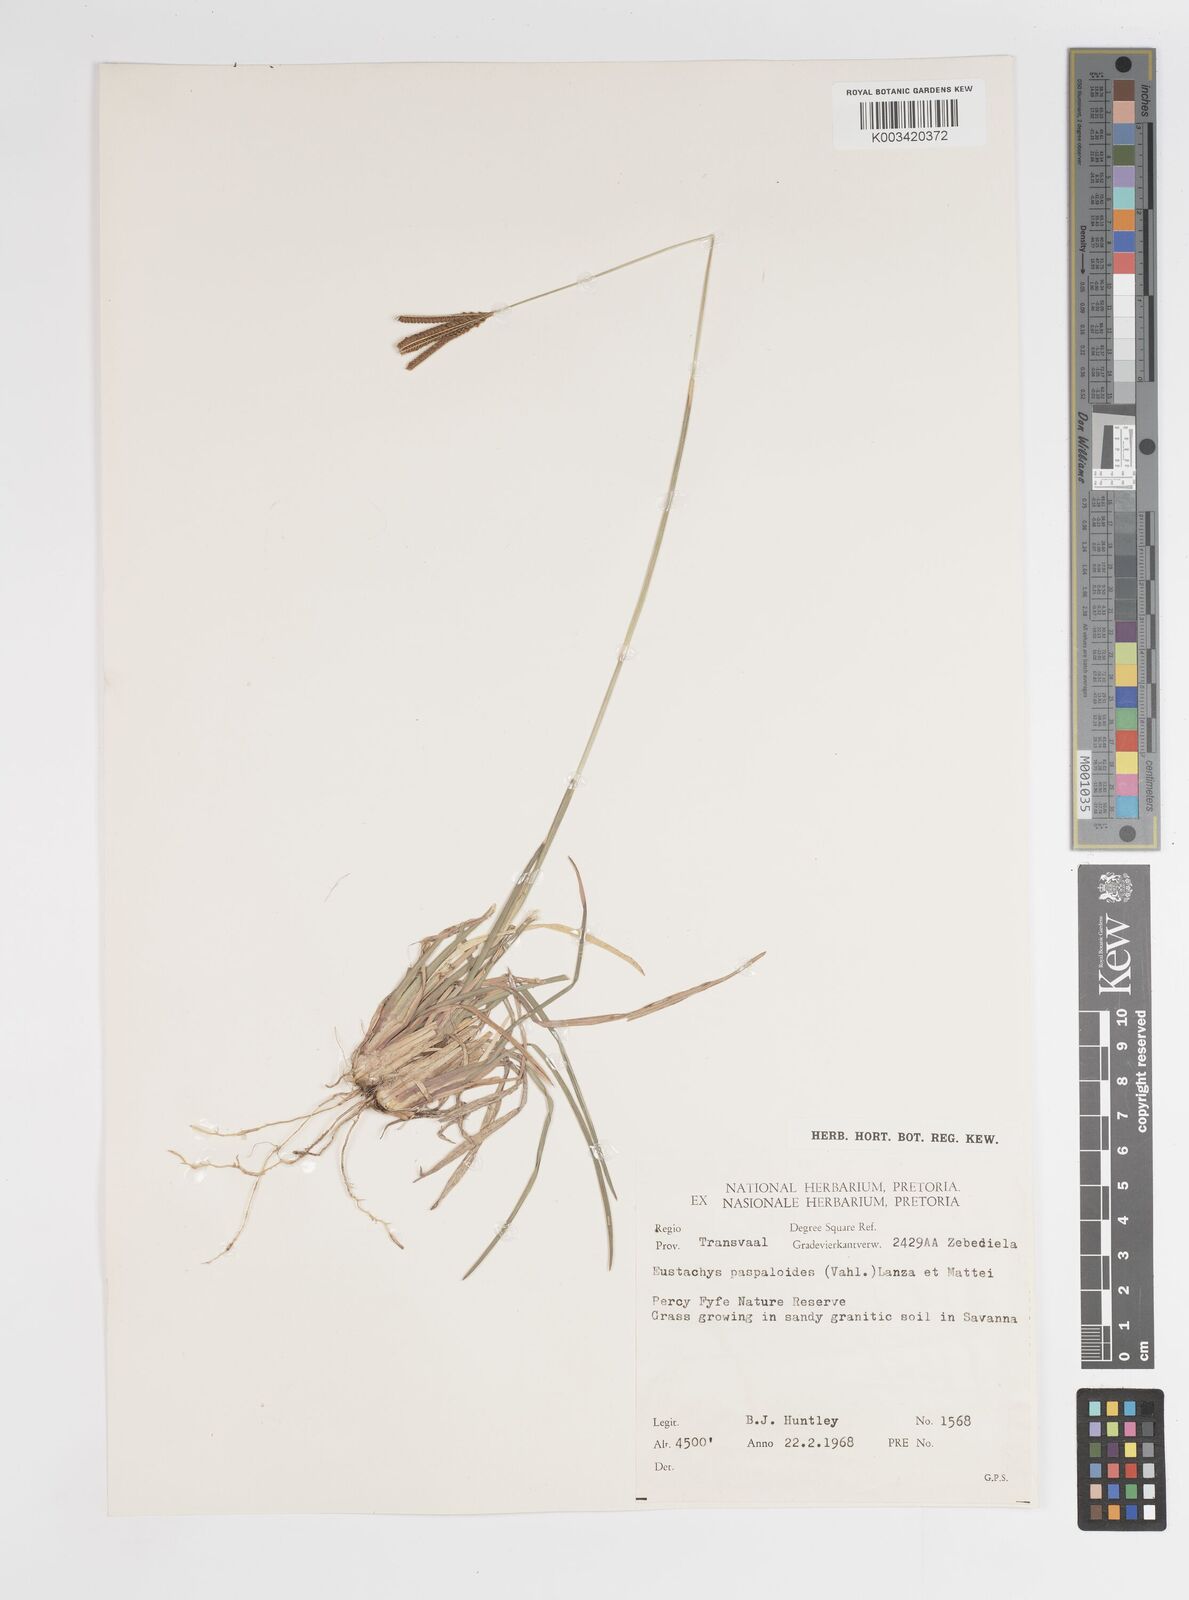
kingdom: Plantae
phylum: Tracheophyta
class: Liliopsida
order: Poales
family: Poaceae
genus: Eustachys
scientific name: Eustachys paspaloides
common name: Caribbean fingergrass
